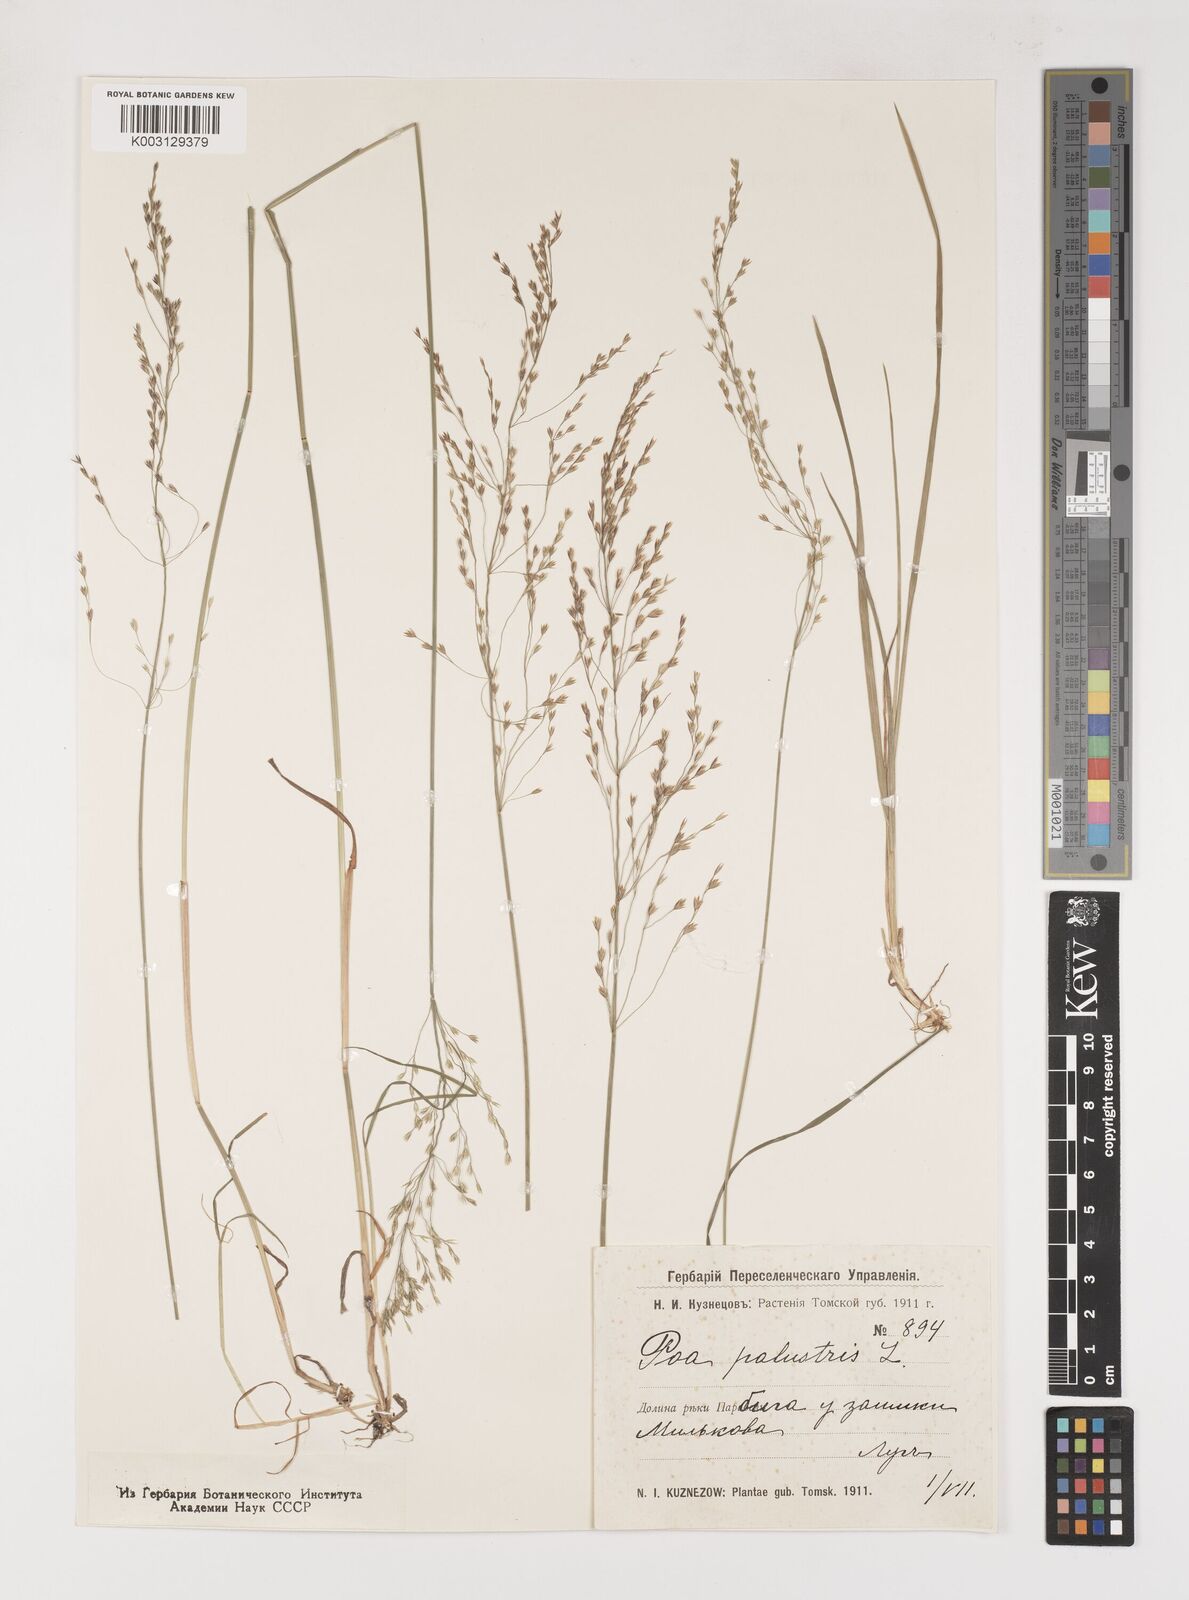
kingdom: Plantae
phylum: Tracheophyta
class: Liliopsida
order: Poales
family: Poaceae
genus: Poa
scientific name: Poa palustris
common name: Swamp meadow-grass
